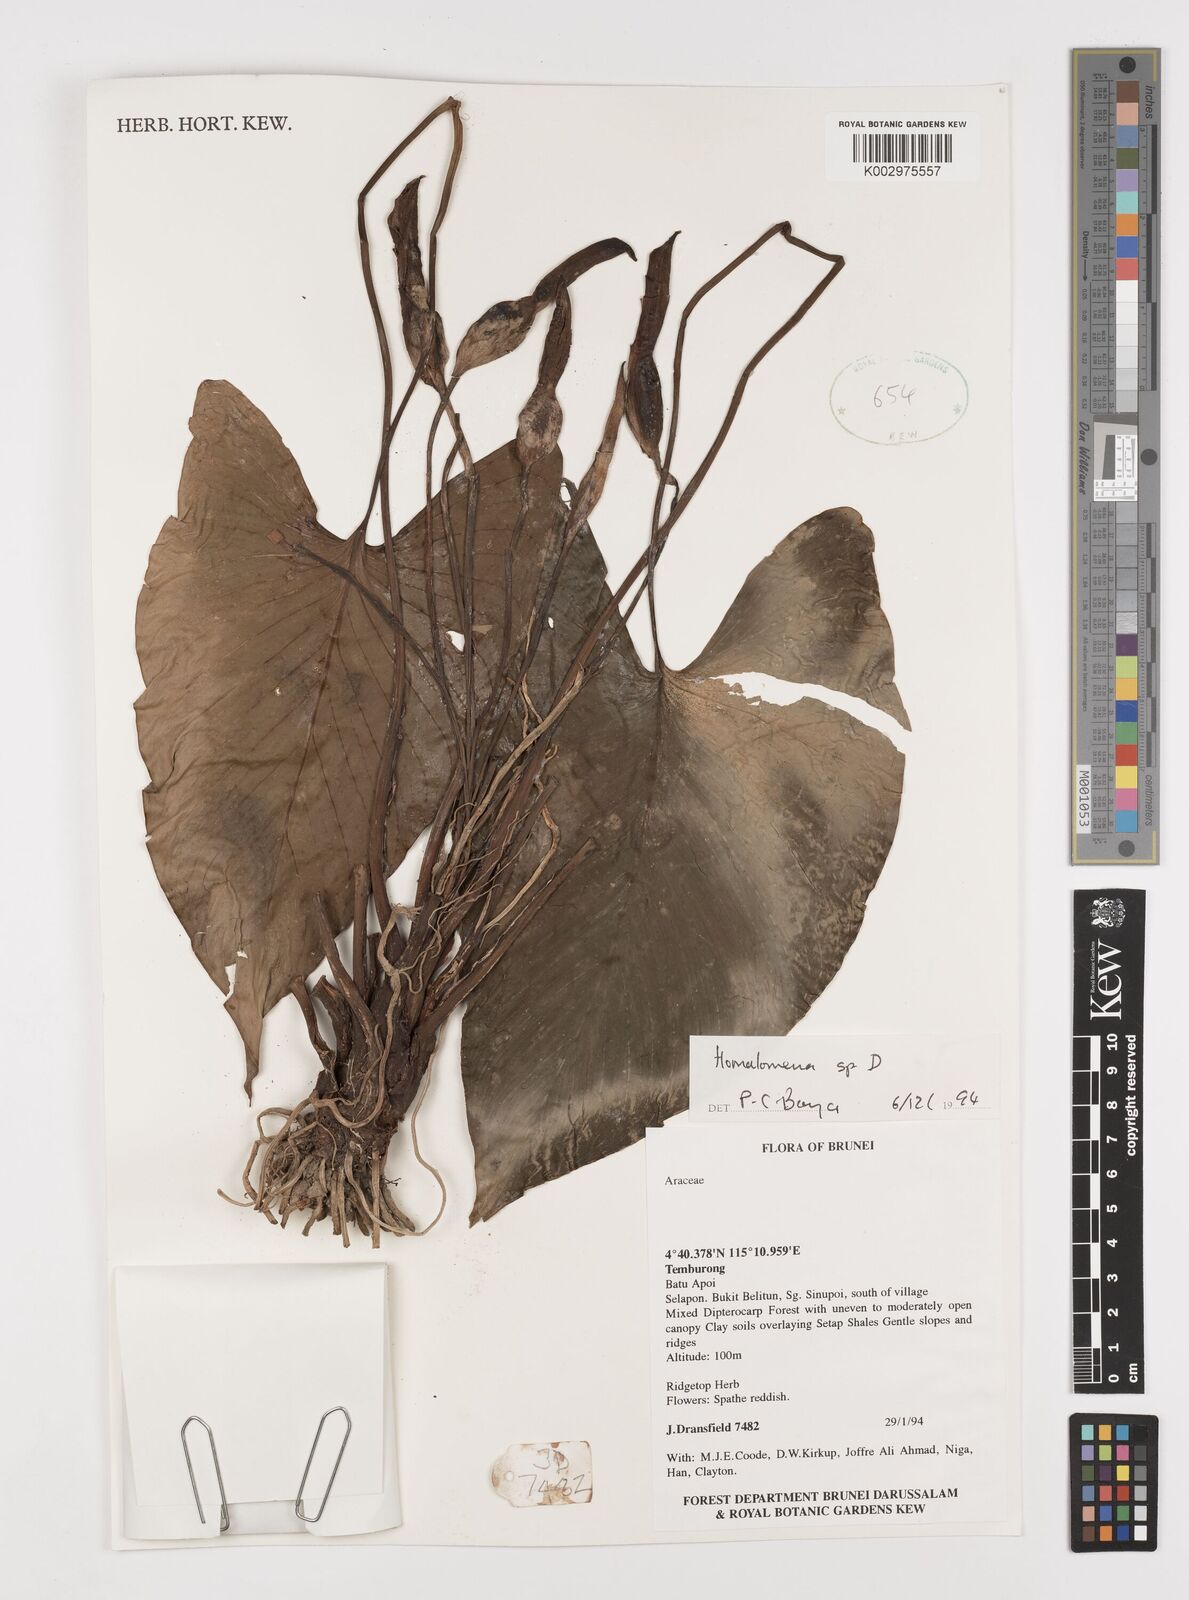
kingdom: Plantae
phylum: Tracheophyta
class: Liliopsida
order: Alismatales
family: Araceae
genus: Homalomena
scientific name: Homalomena
